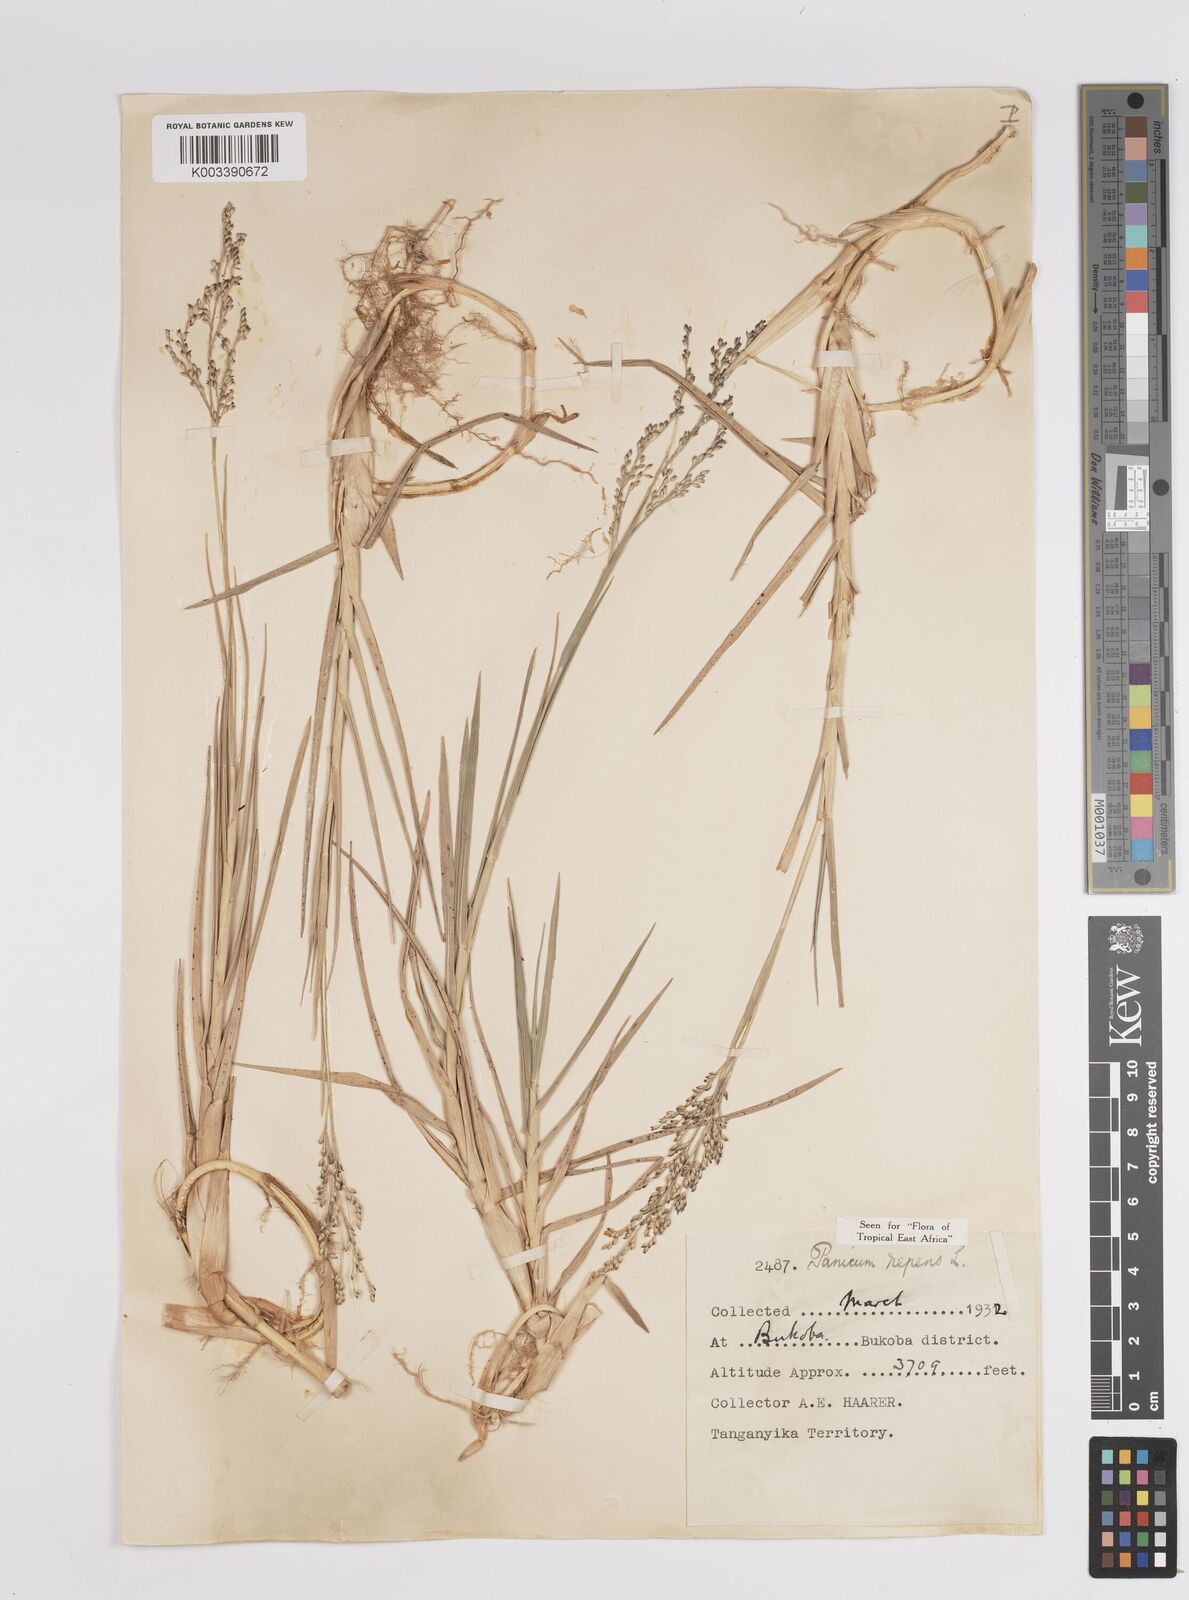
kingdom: Plantae
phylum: Tracheophyta
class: Liliopsida
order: Poales
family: Poaceae
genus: Panicum
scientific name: Panicum repens
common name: Torpedo grass
